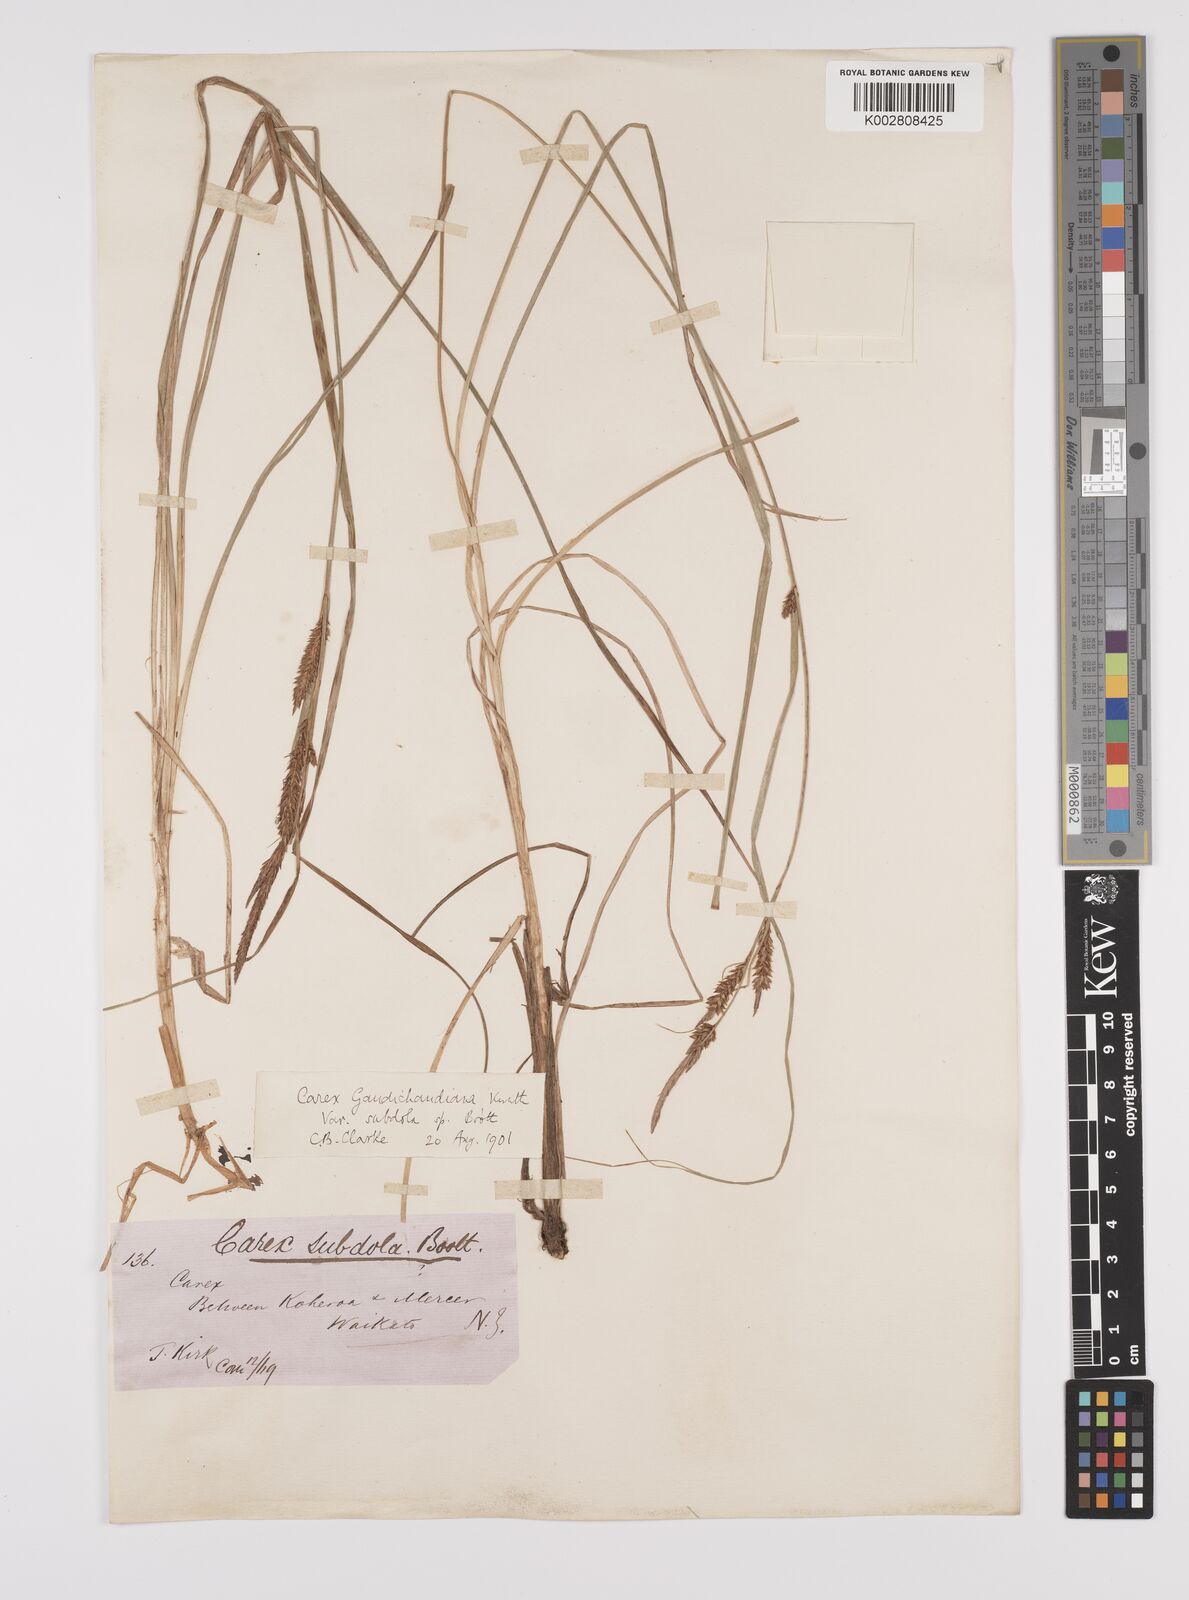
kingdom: Plantae
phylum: Tracheophyta
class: Liliopsida
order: Poales
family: Cyperaceae
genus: Carex
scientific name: Carex subdola
